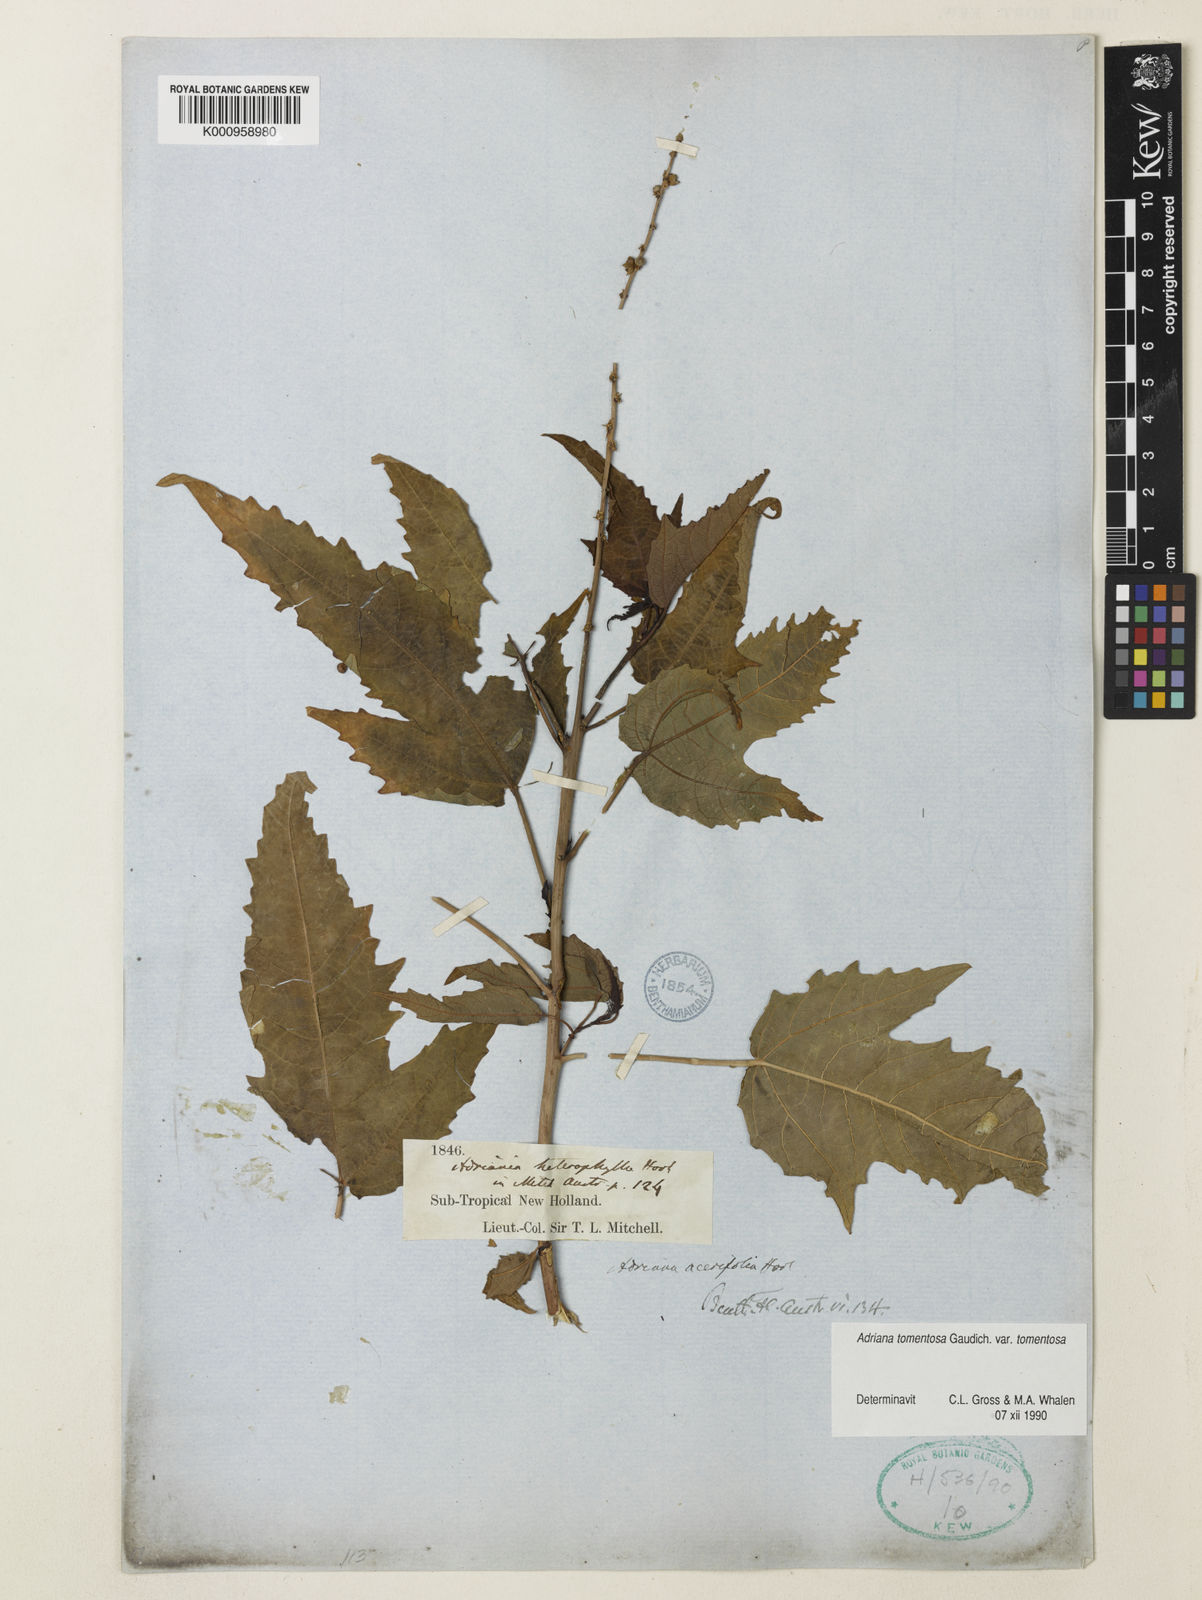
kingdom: Plantae
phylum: Tracheophyta
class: Magnoliopsida
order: Malpighiales
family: Euphorbiaceae
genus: Adriana
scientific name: Adriana tomentosa
